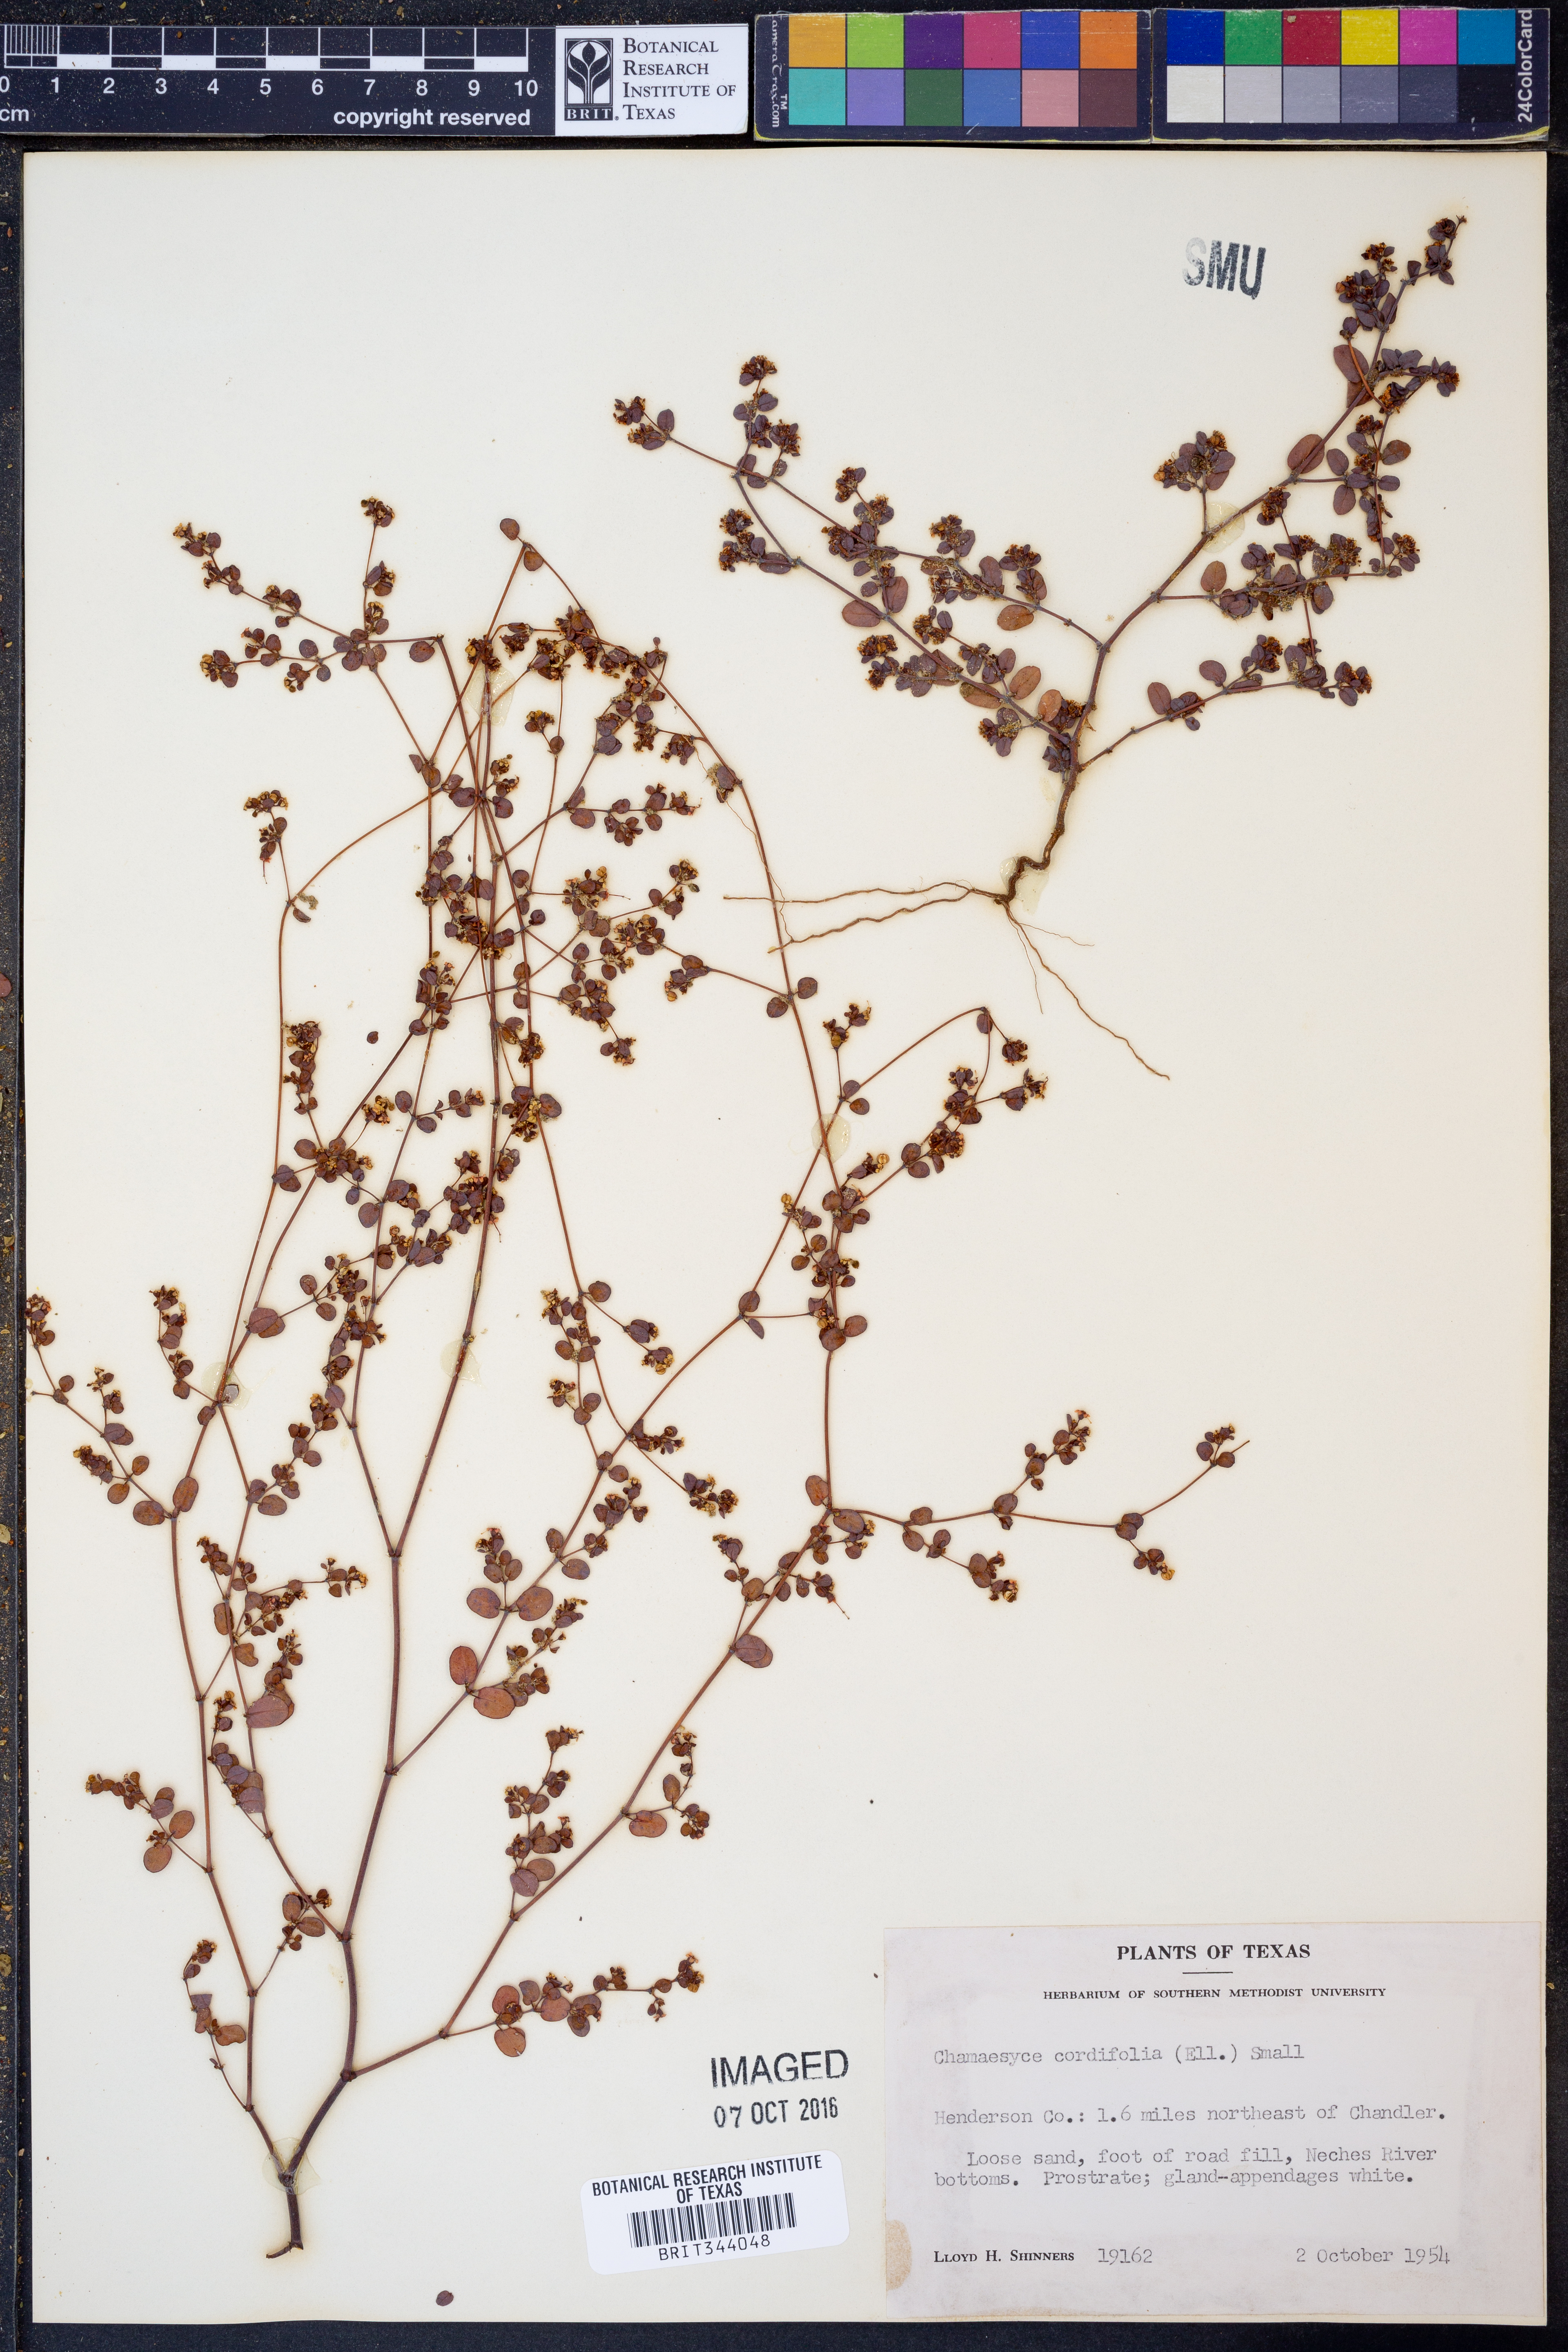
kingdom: Plantae
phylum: Tracheophyta
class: Magnoliopsida
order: Malpighiales
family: Euphorbiaceae
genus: Euphorbia
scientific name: Euphorbia cordifolia
